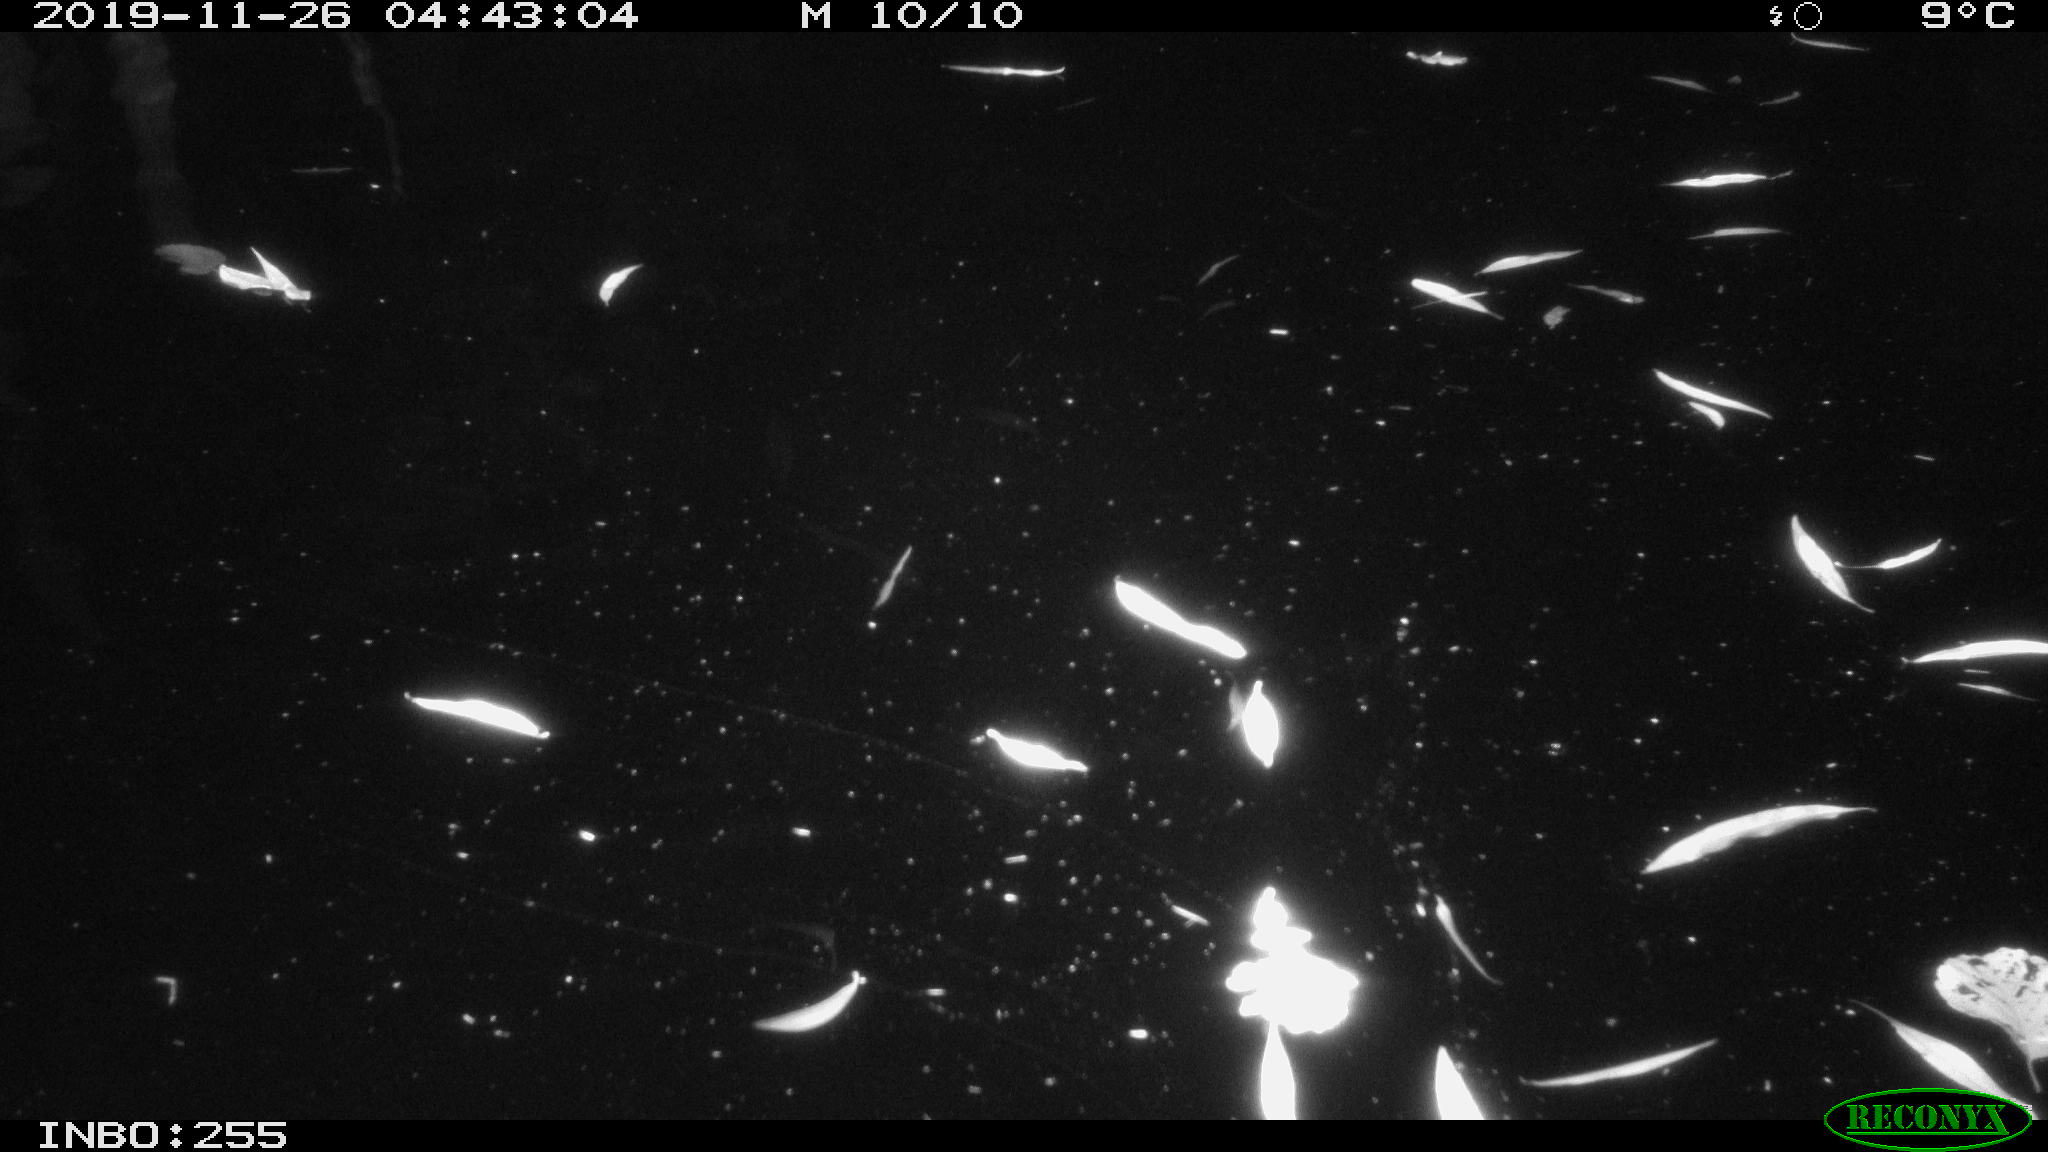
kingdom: Animalia
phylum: Chordata
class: Aves
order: Anseriformes
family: Anatidae
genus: Anas
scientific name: Anas platyrhynchos
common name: Mallard
